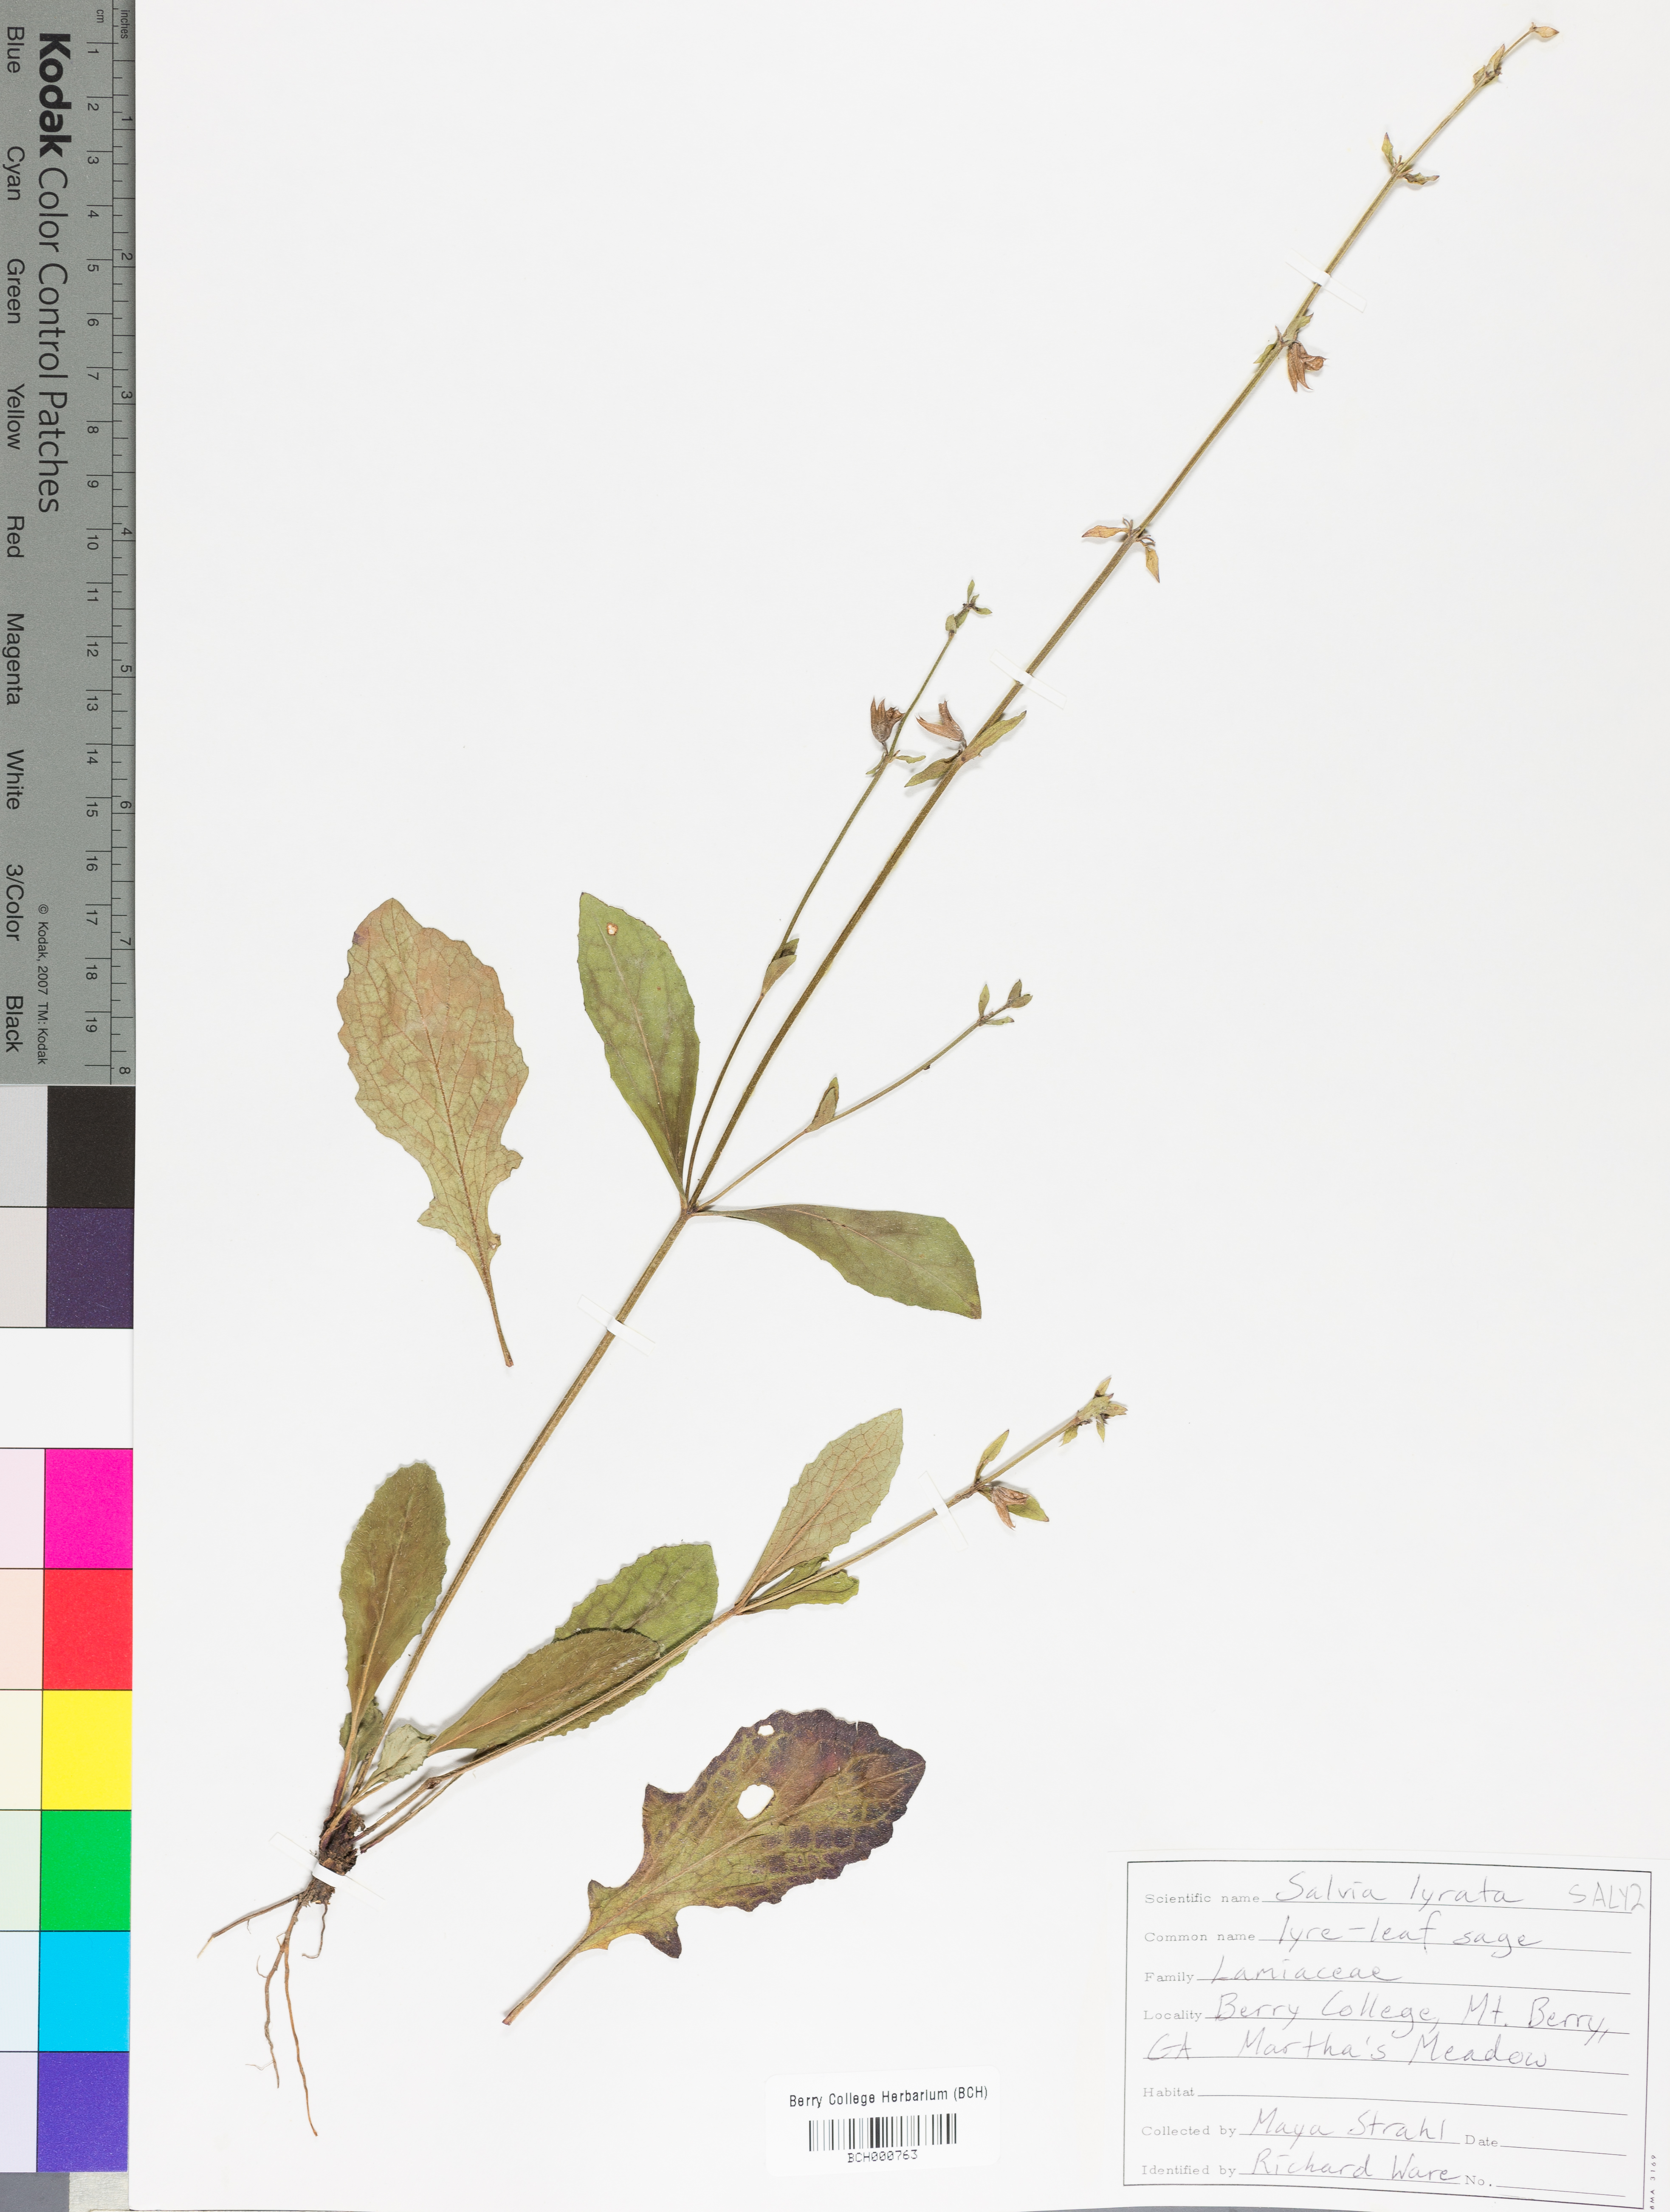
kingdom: Plantae
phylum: Tracheophyta
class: Magnoliopsida
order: Lamiales
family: Lamiaceae
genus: Salvia
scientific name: Salvia lyrata
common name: Cancerweed
